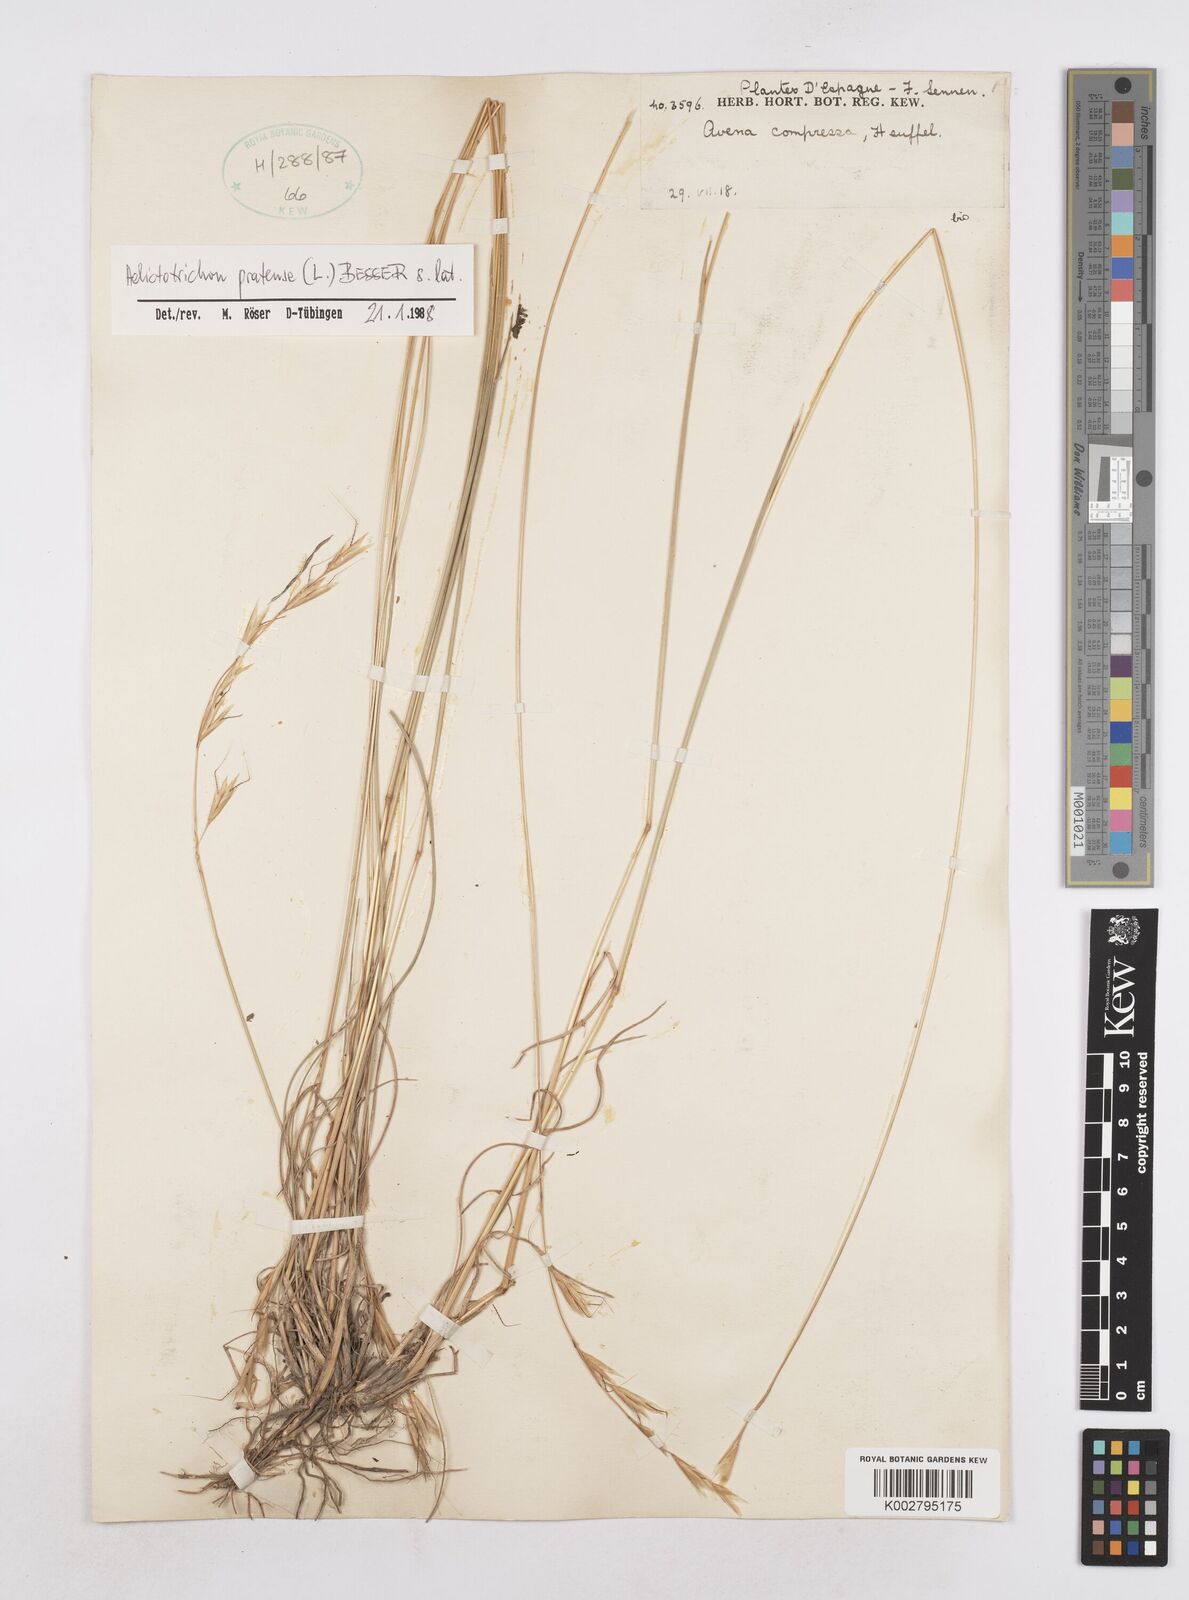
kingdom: Plantae
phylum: Tracheophyta
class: Liliopsida
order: Poales
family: Poaceae
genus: Helictochloa
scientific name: Helictochloa pratensis
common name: Meadow oat grass
